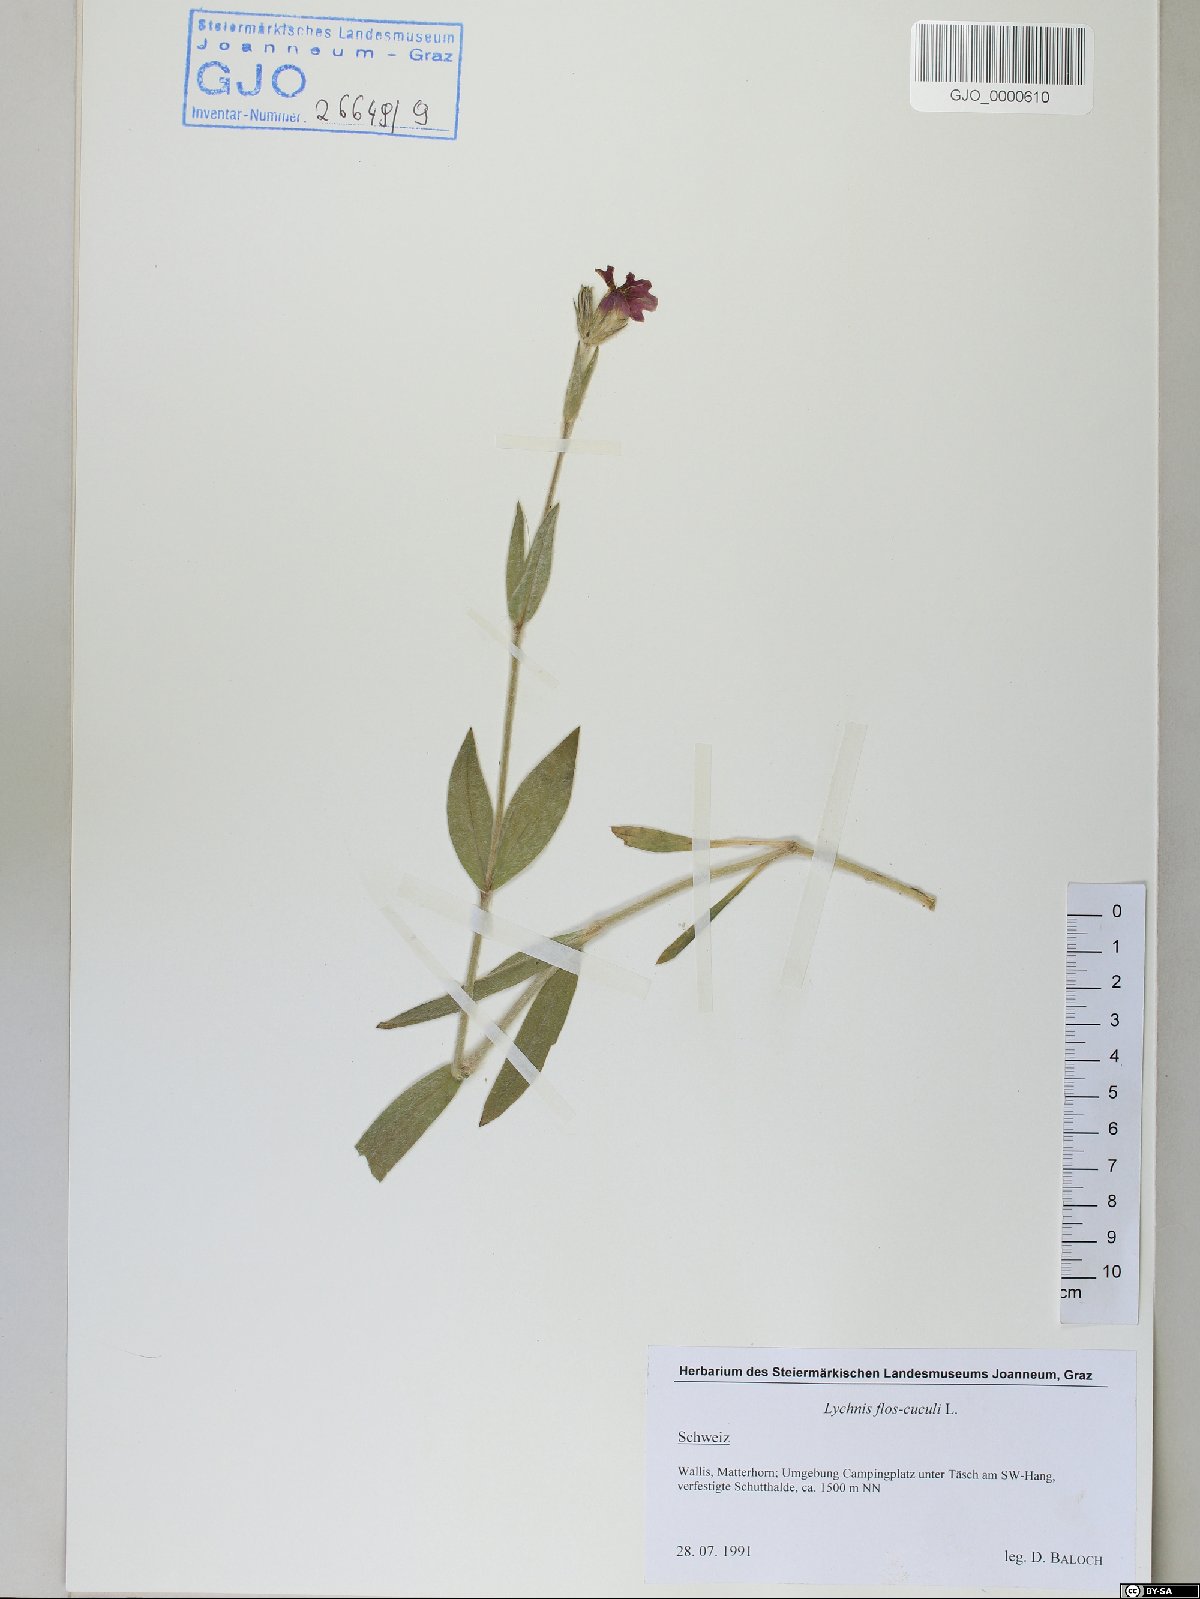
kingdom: Plantae
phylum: Tracheophyta
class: Magnoliopsida
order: Caryophyllales
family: Caryophyllaceae
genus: Silene
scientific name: Silene flos-cuculi
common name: Ragged-robin
